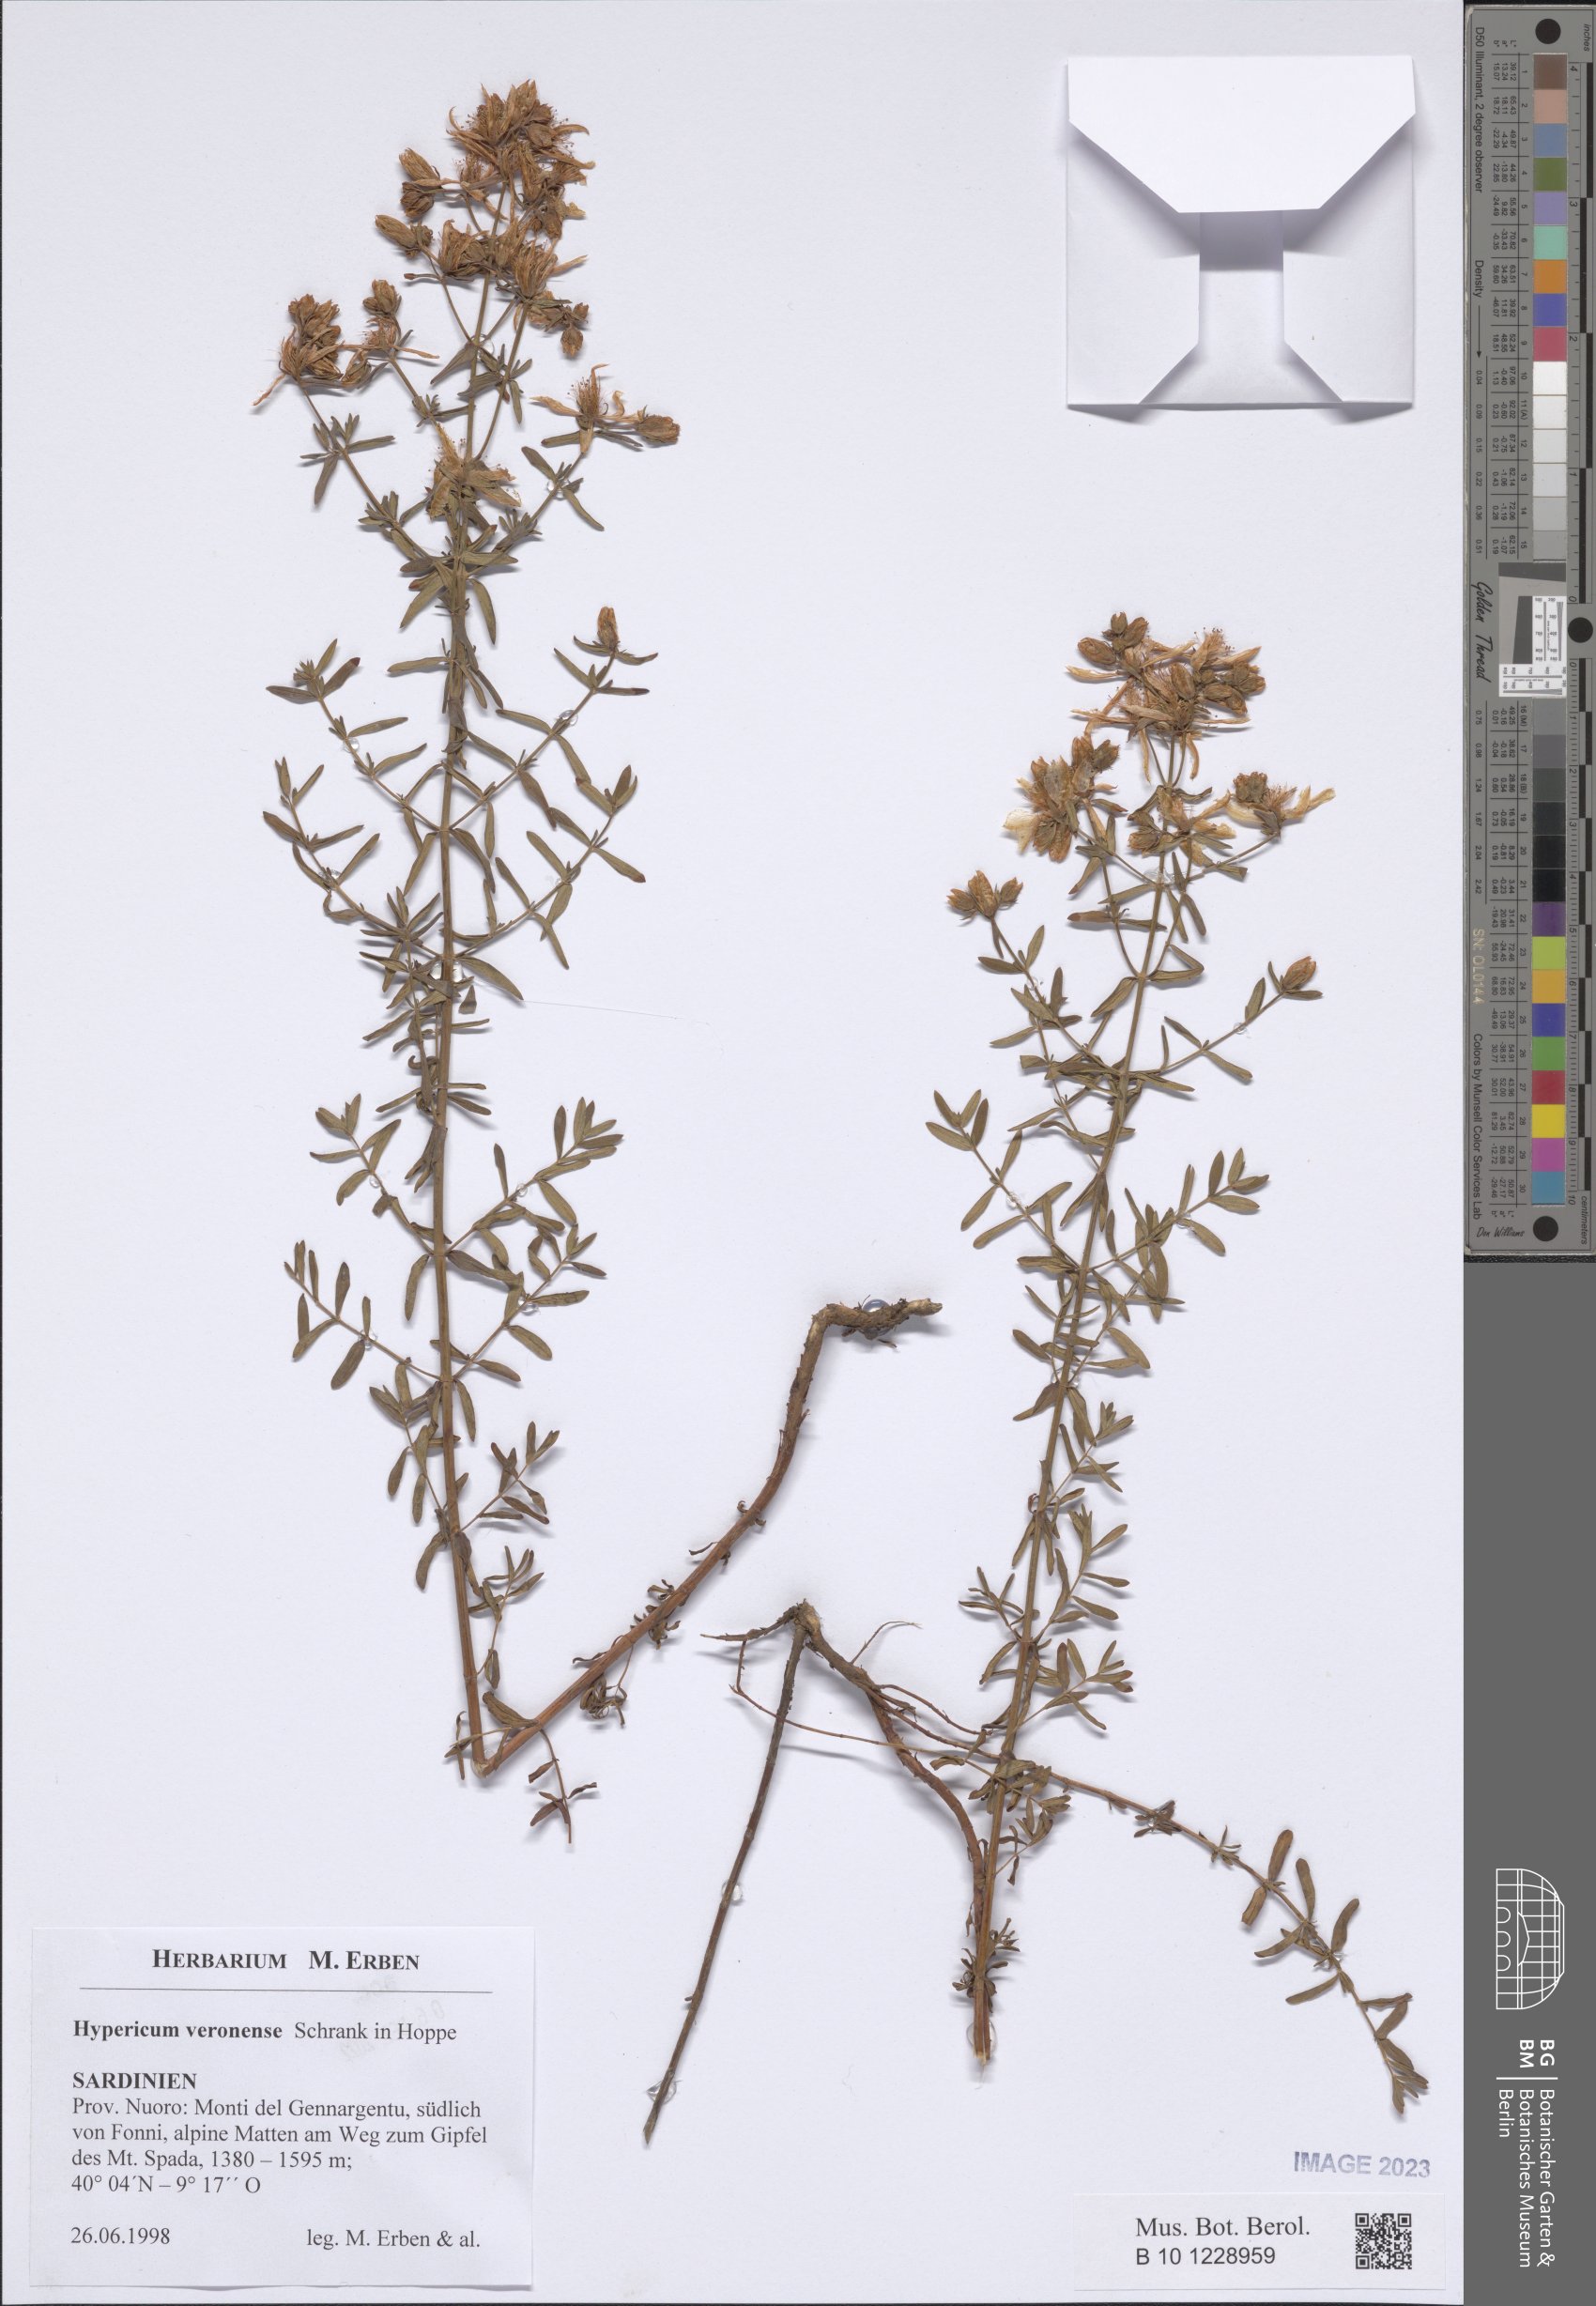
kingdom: Plantae
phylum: Tracheophyta
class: Magnoliopsida
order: Malpighiales
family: Hypericaceae
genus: Hypericum
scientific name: Hypericum veronense
